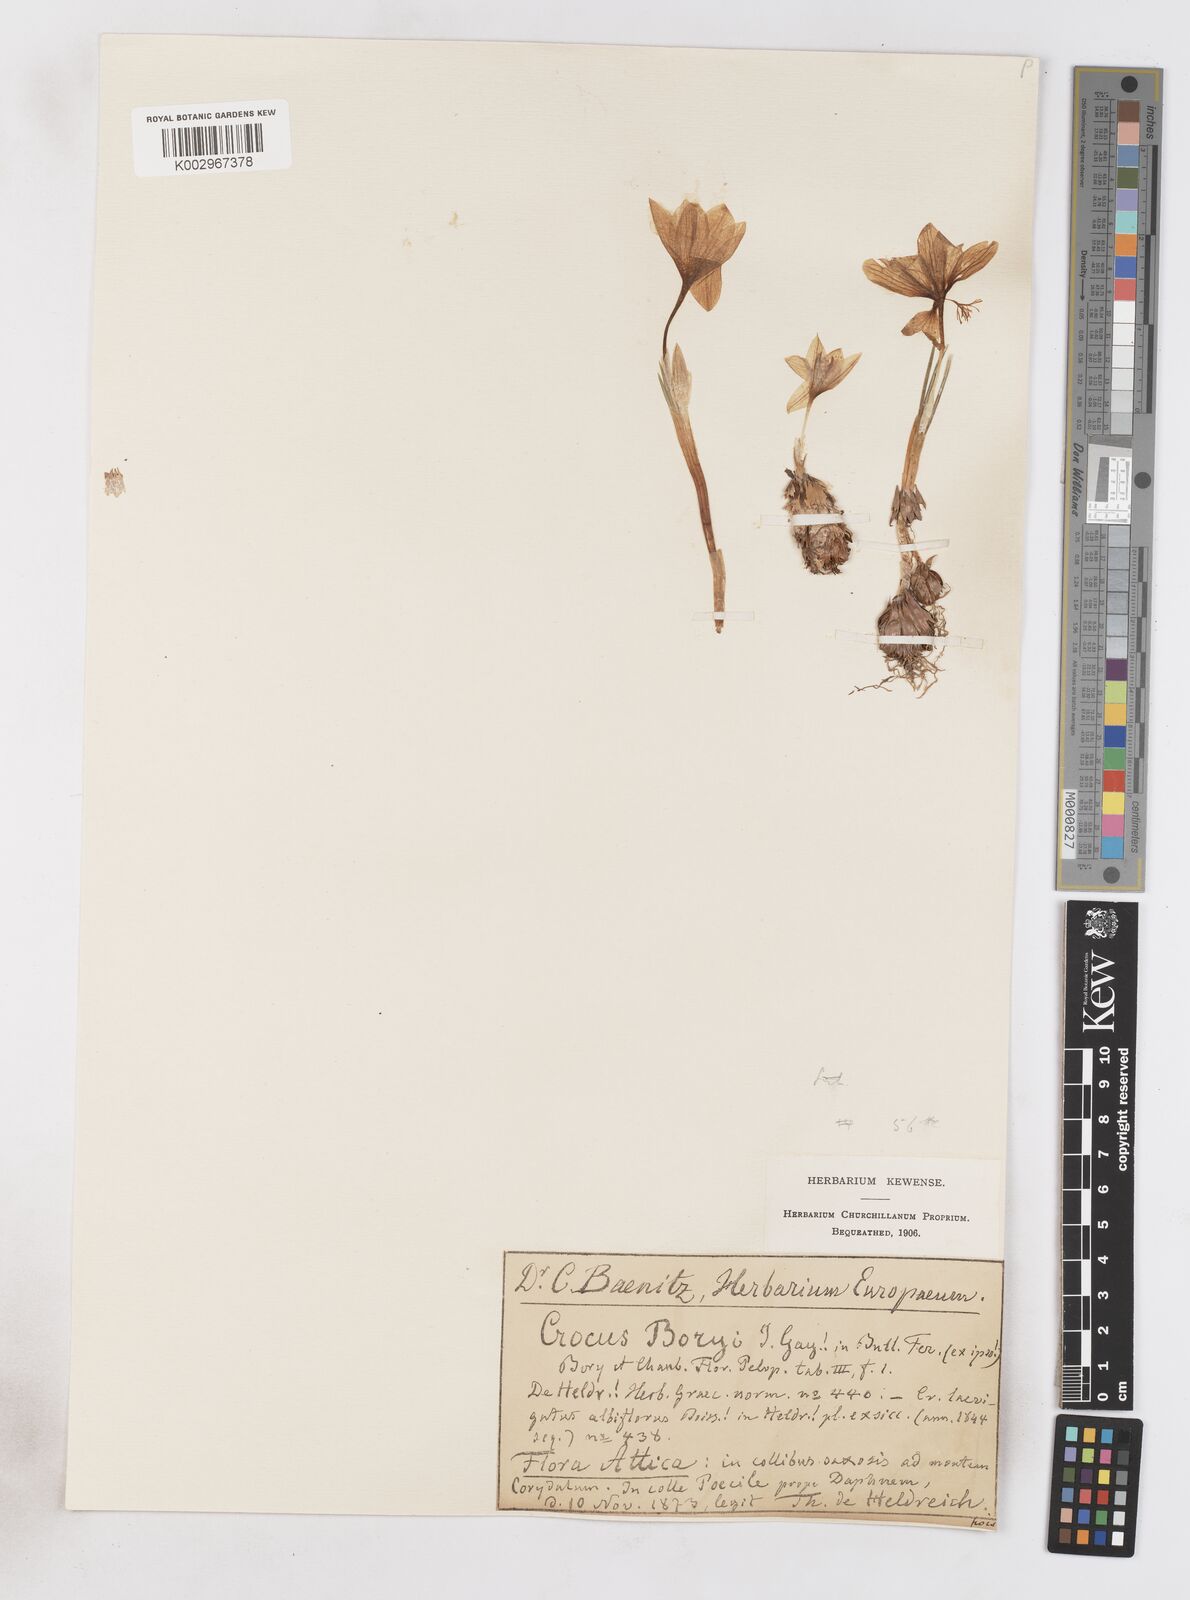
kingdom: Plantae
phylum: Tracheophyta
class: Liliopsida
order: Asparagales
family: Iridaceae
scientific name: Iridaceae
